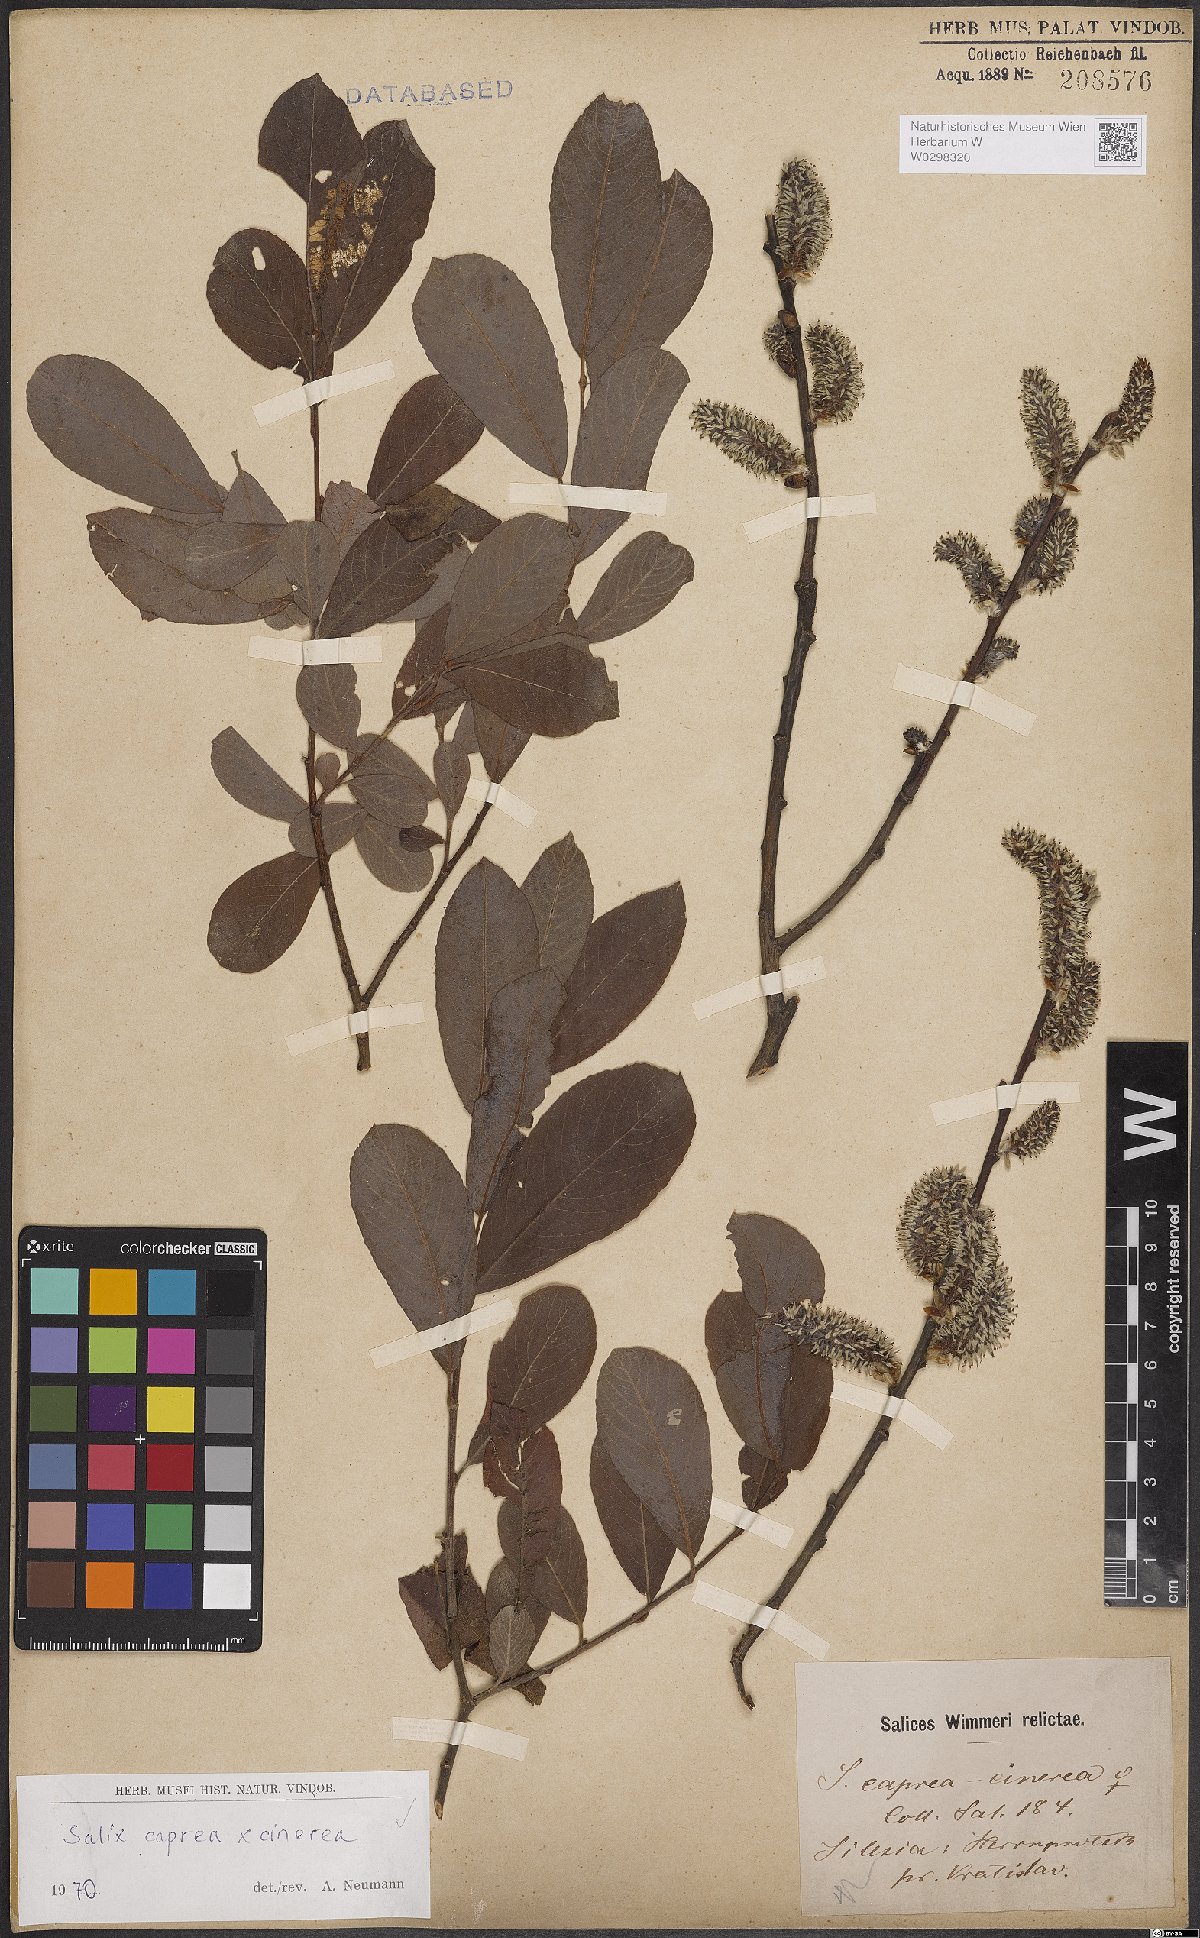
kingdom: Plantae
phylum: Tracheophyta
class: Magnoliopsida
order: Malpighiales
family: Salicaceae
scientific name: Salicaceae
